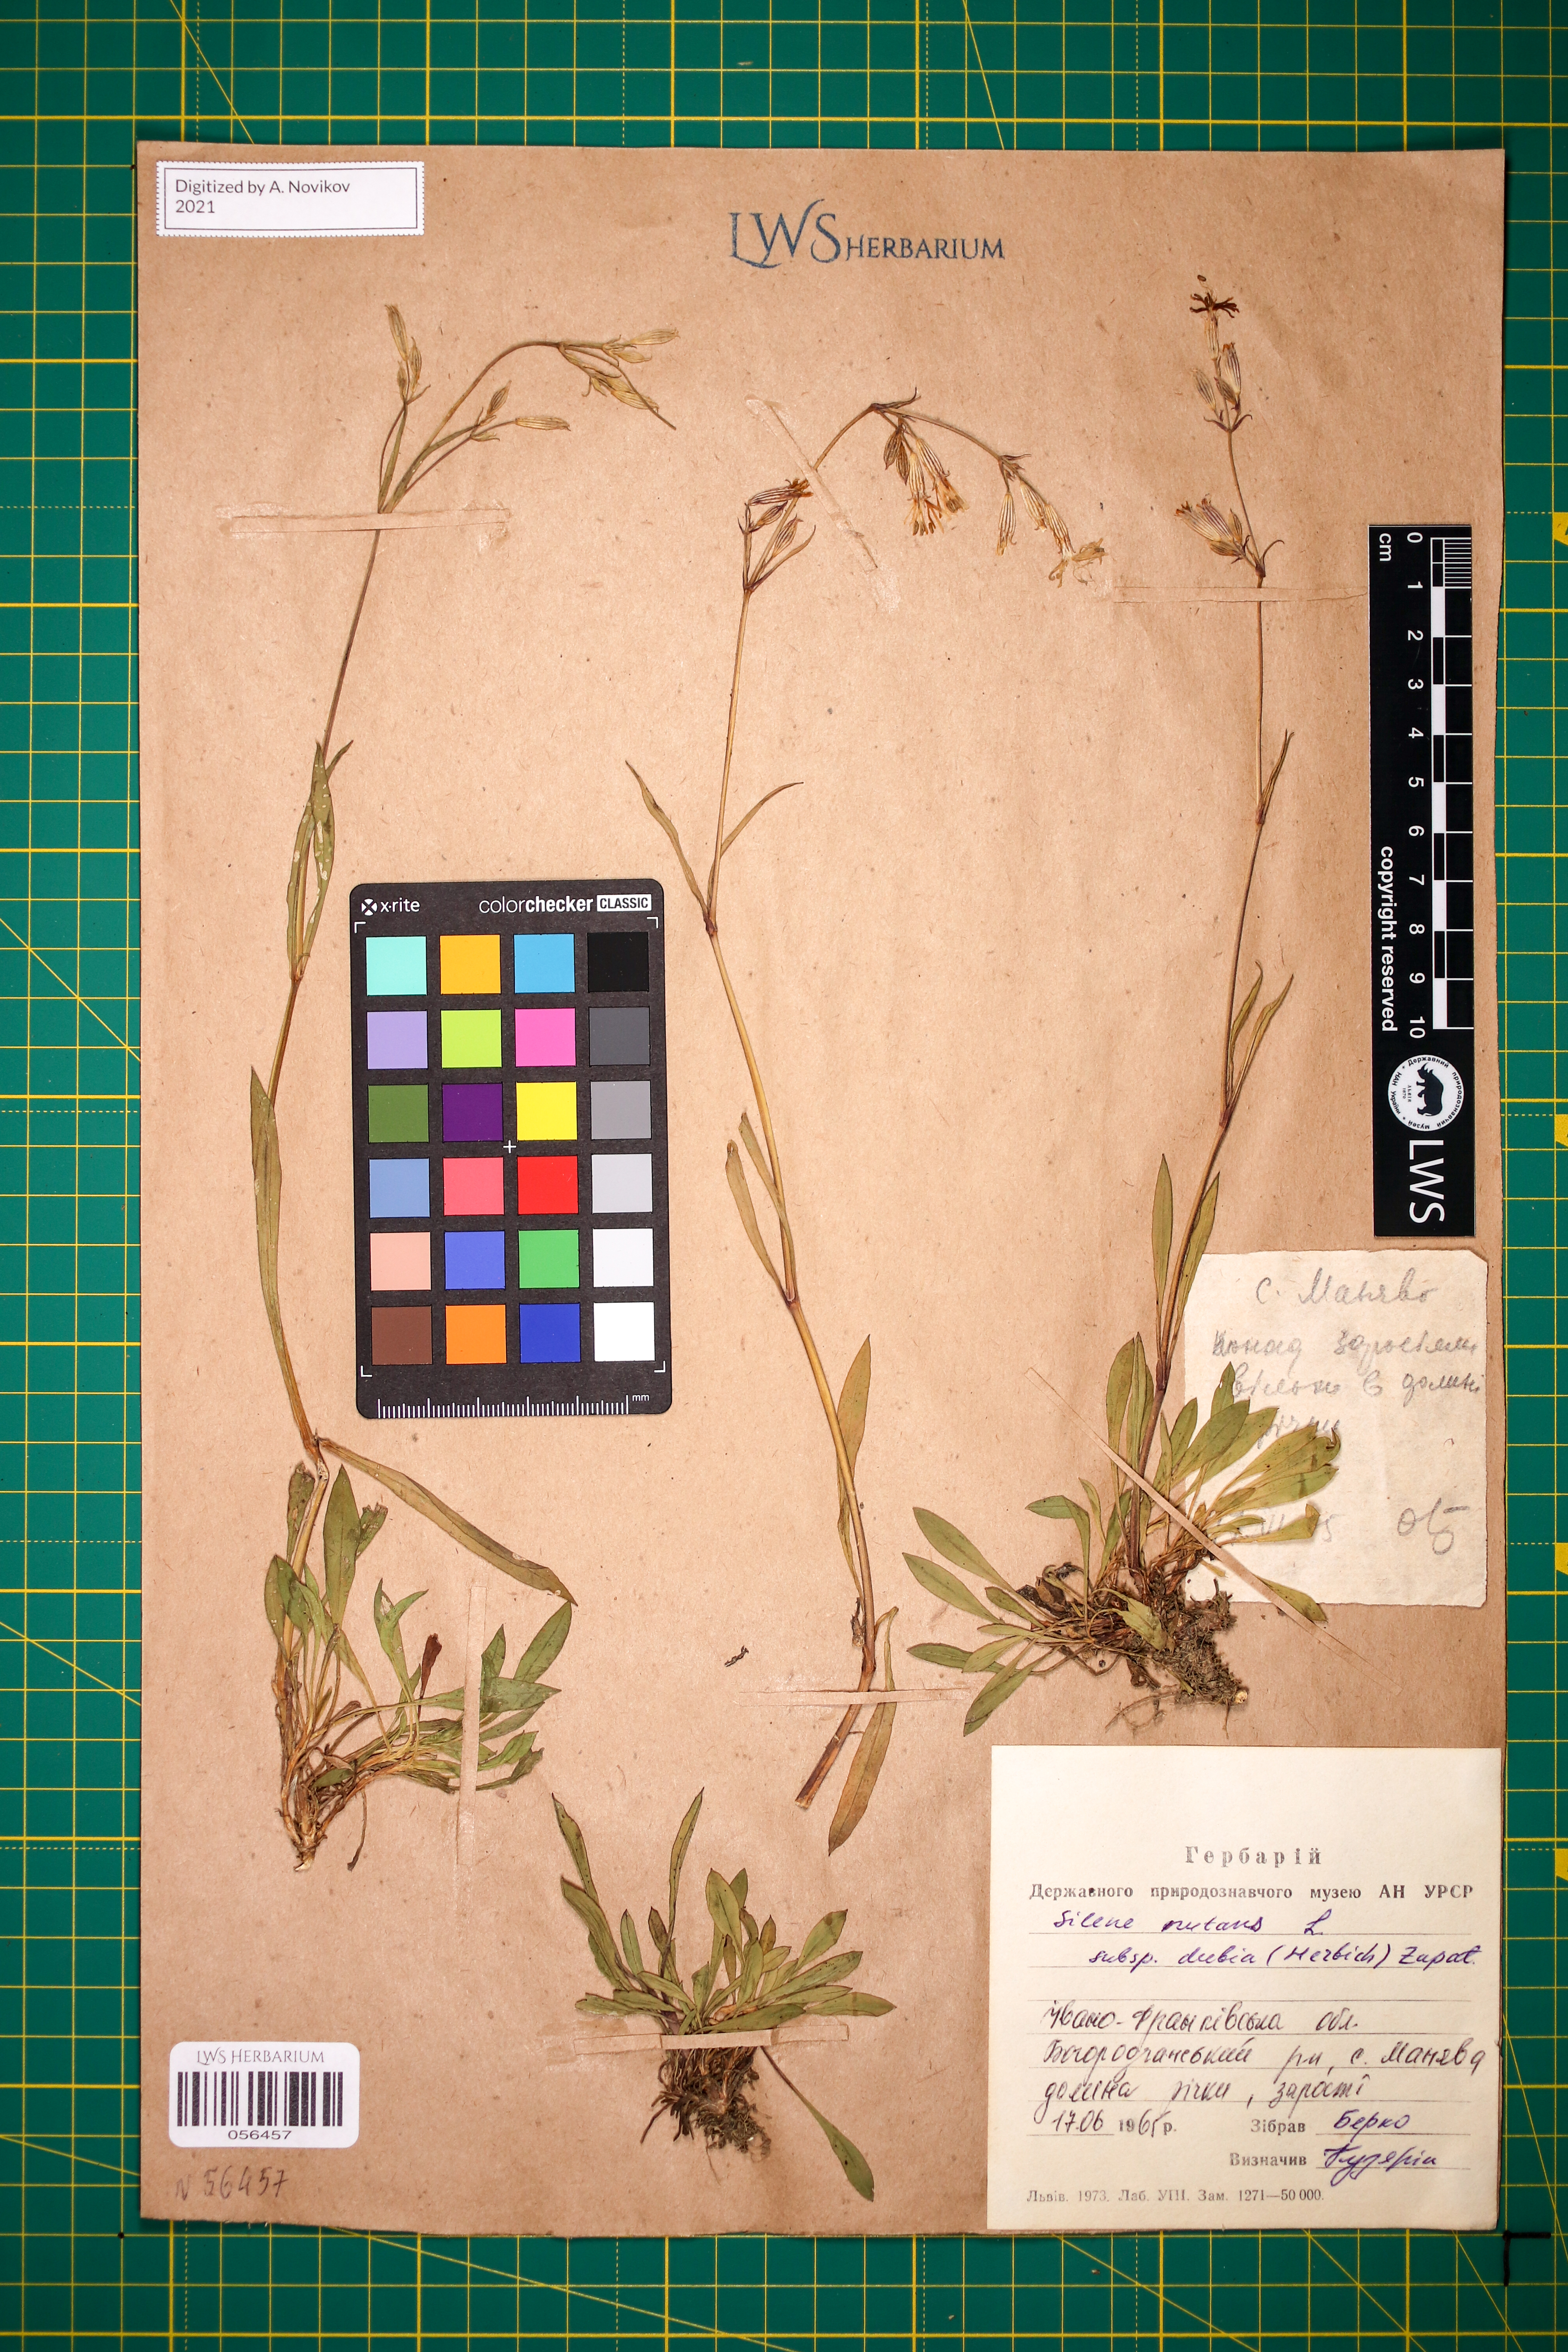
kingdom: Plantae
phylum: Tracheophyta
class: Magnoliopsida
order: Caryophyllales
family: Caryophyllaceae
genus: Silene
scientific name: Silene nutans
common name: Nottingham catchfly
